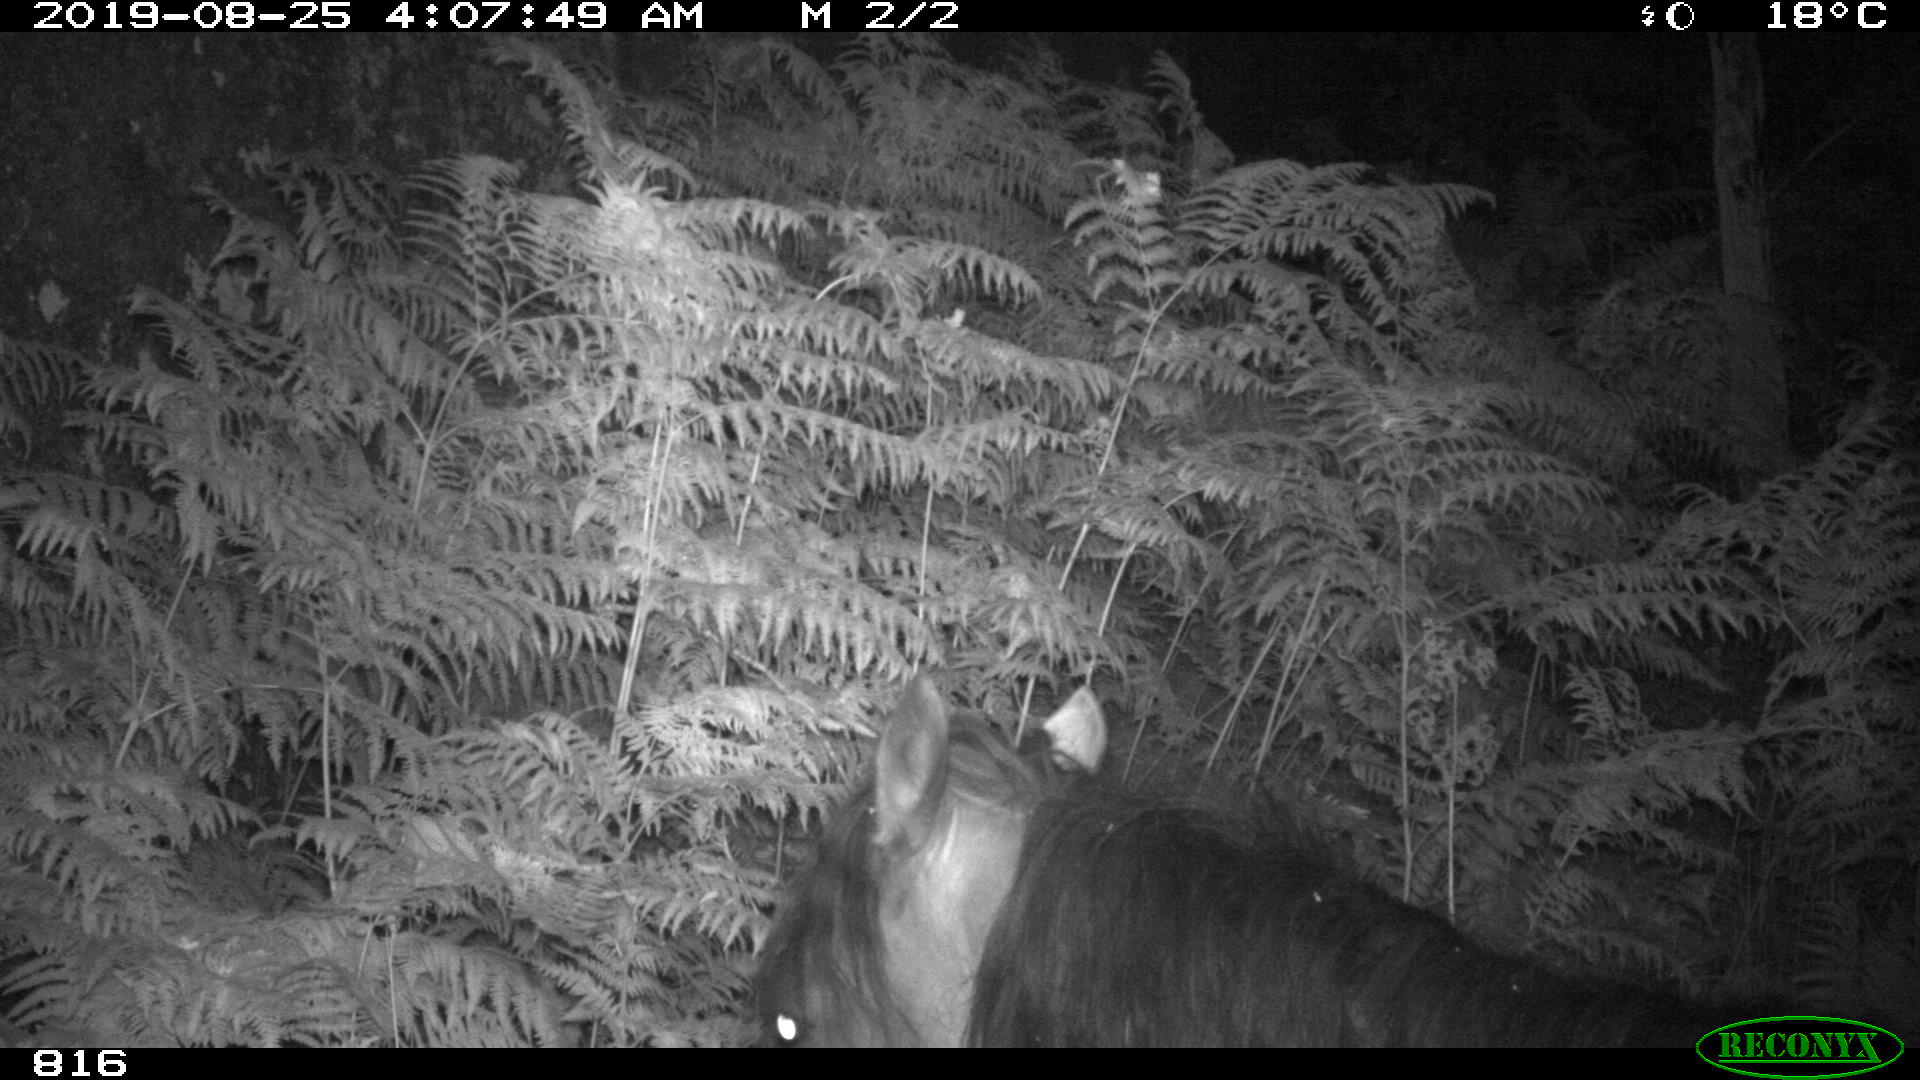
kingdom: Animalia
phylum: Chordata
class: Mammalia
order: Perissodactyla
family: Equidae
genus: Equus
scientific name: Equus caballus
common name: Horse
